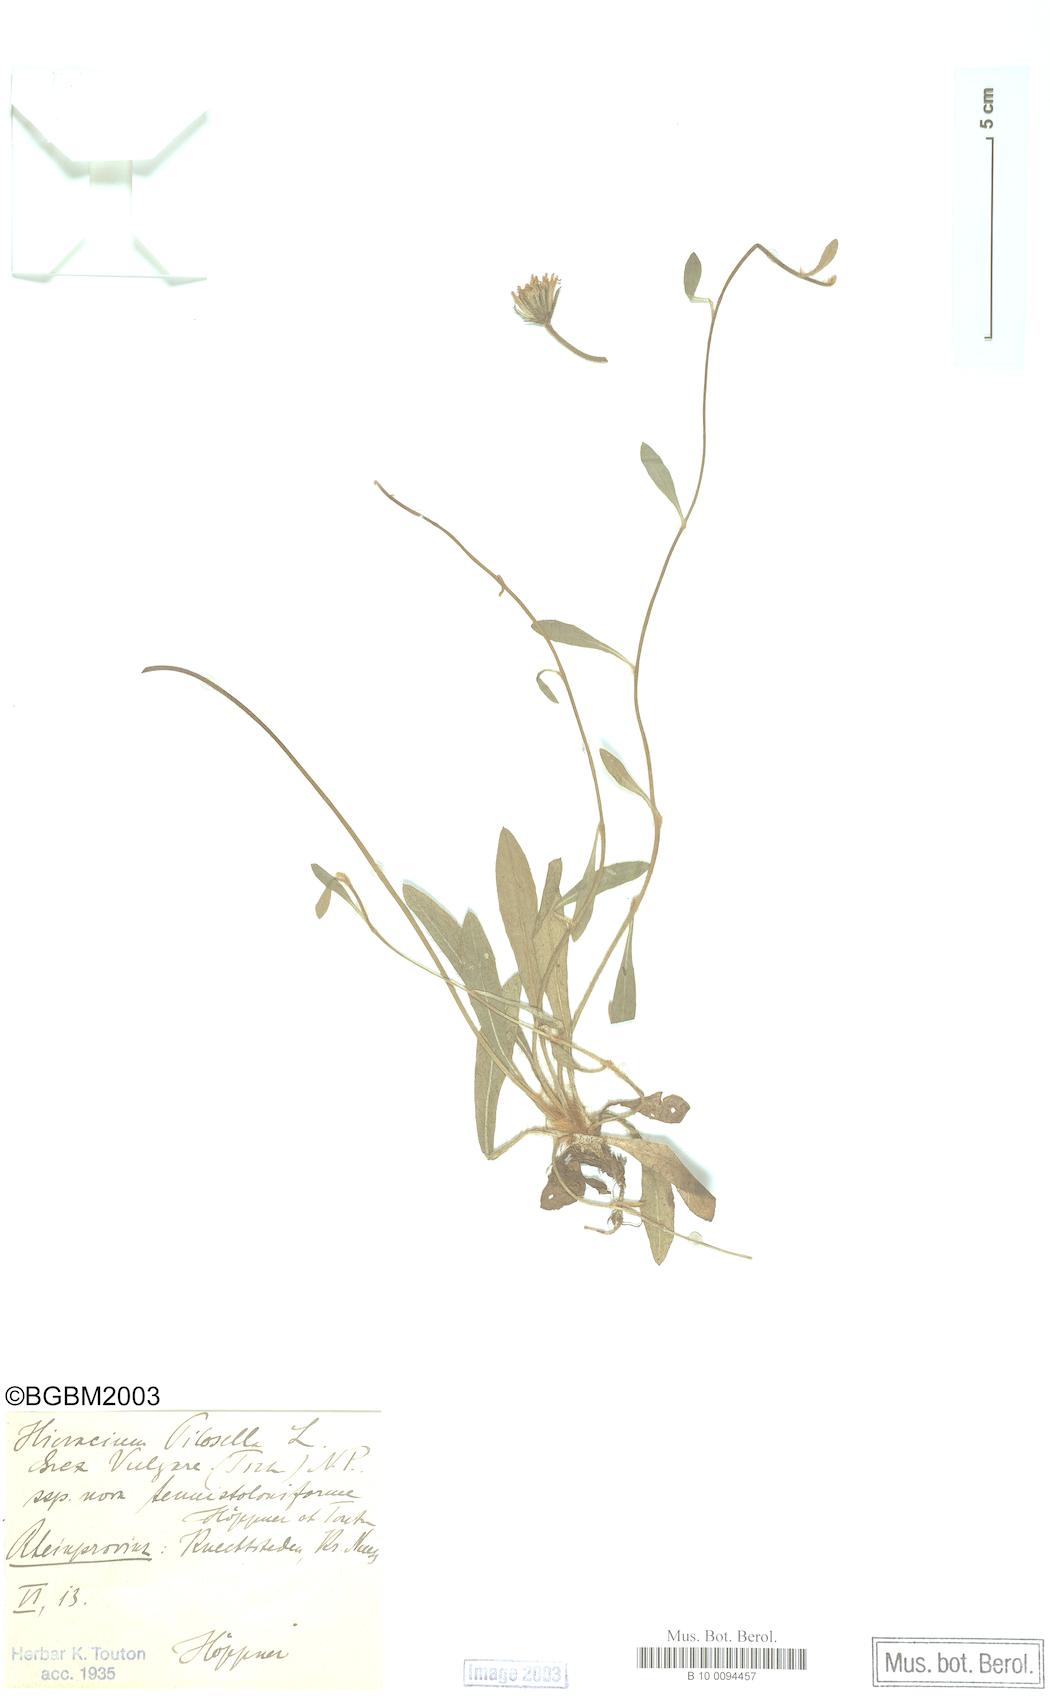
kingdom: Plantae
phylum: Tracheophyta
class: Magnoliopsida
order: Asterales
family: Asteraceae
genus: Pilosella
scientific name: Pilosella officinarum
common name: Mouse-ear hawkweed
